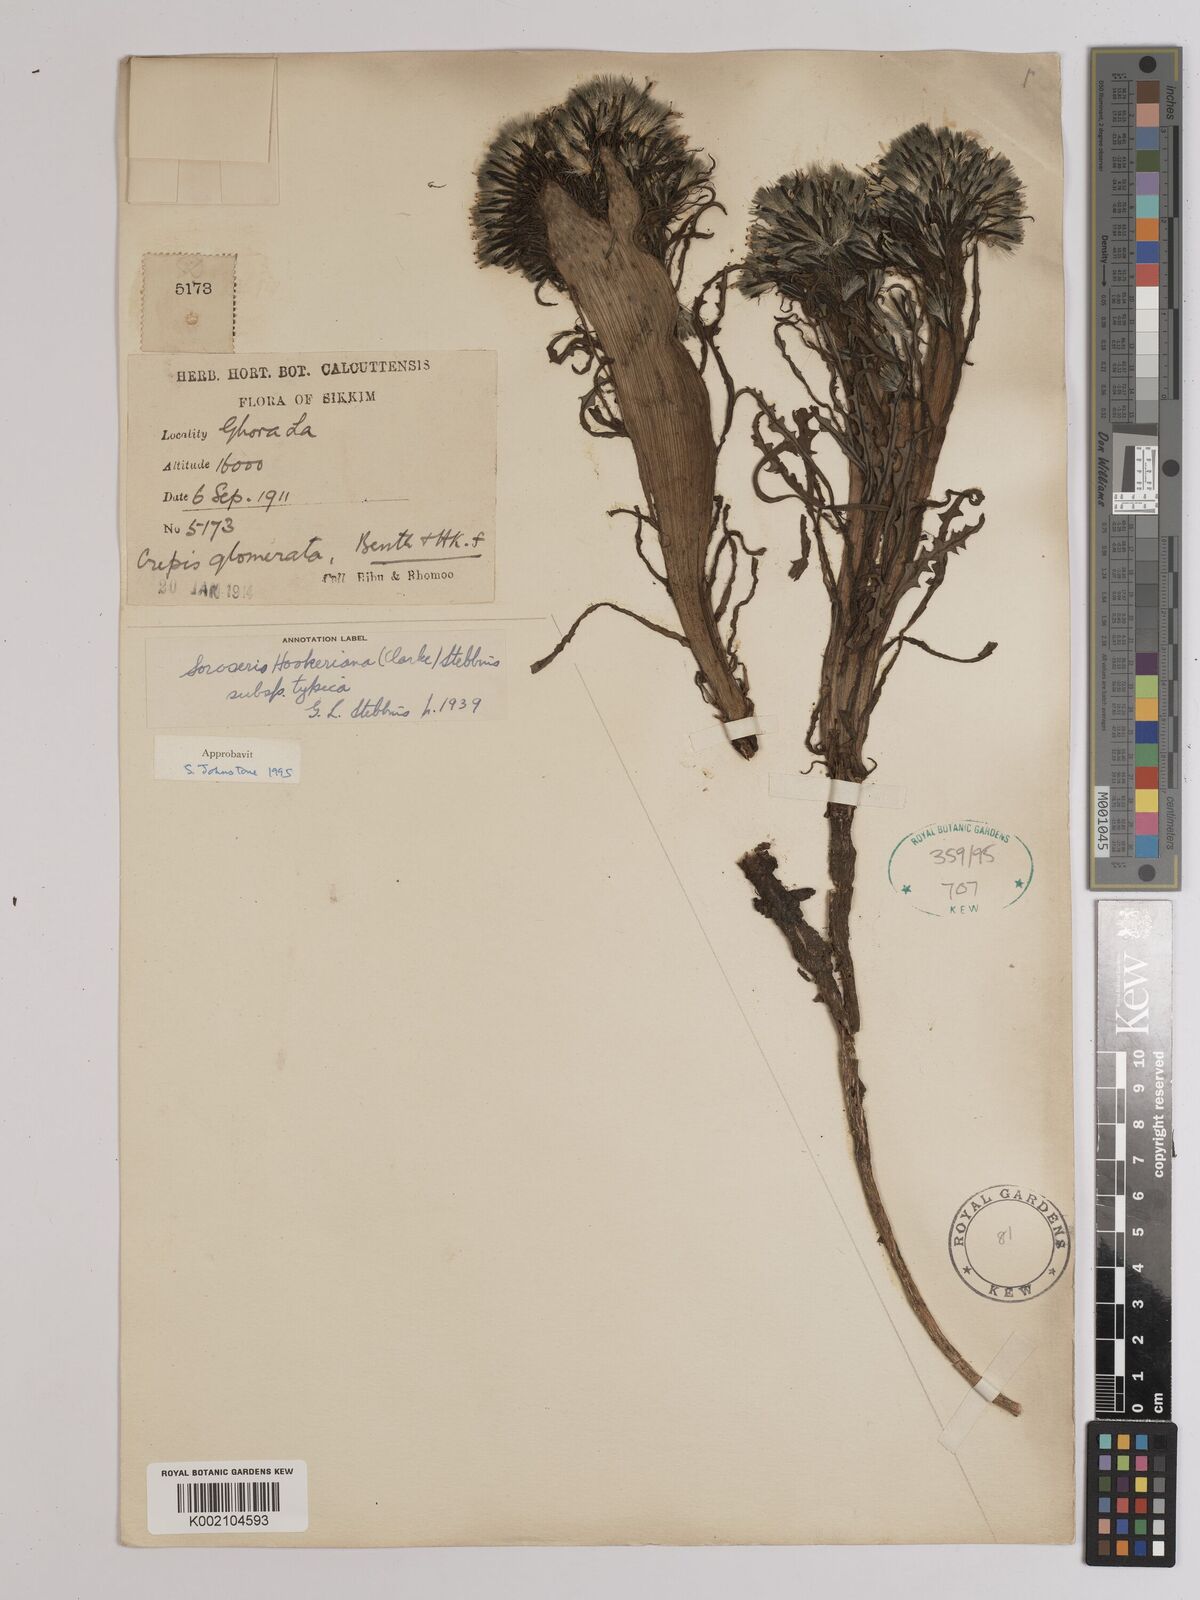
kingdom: Plantae
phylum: Tracheophyta
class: Magnoliopsida
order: Asterales
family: Asteraceae
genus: Soroseris
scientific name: Soroseris hookeriana
